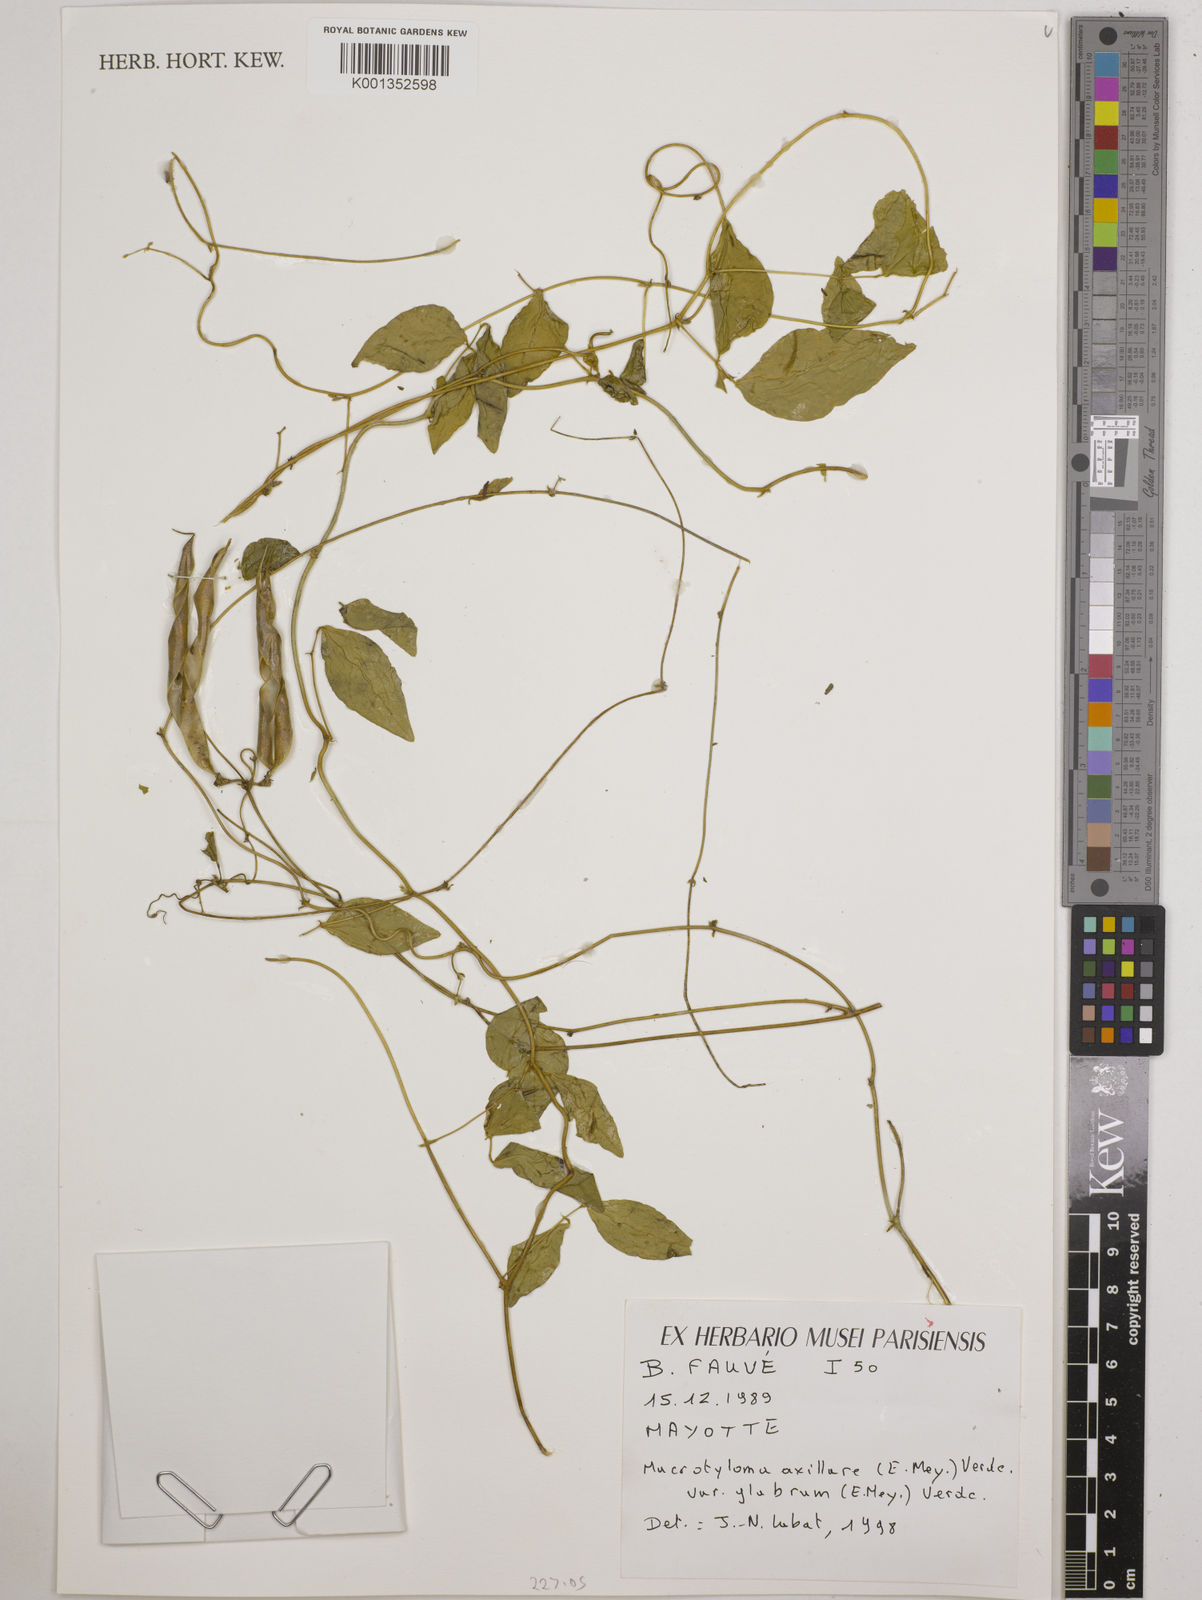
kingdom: Plantae
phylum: Tracheophyta
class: Magnoliopsida
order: Fabales
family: Fabaceae
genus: Macrotyloma
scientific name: Macrotyloma
